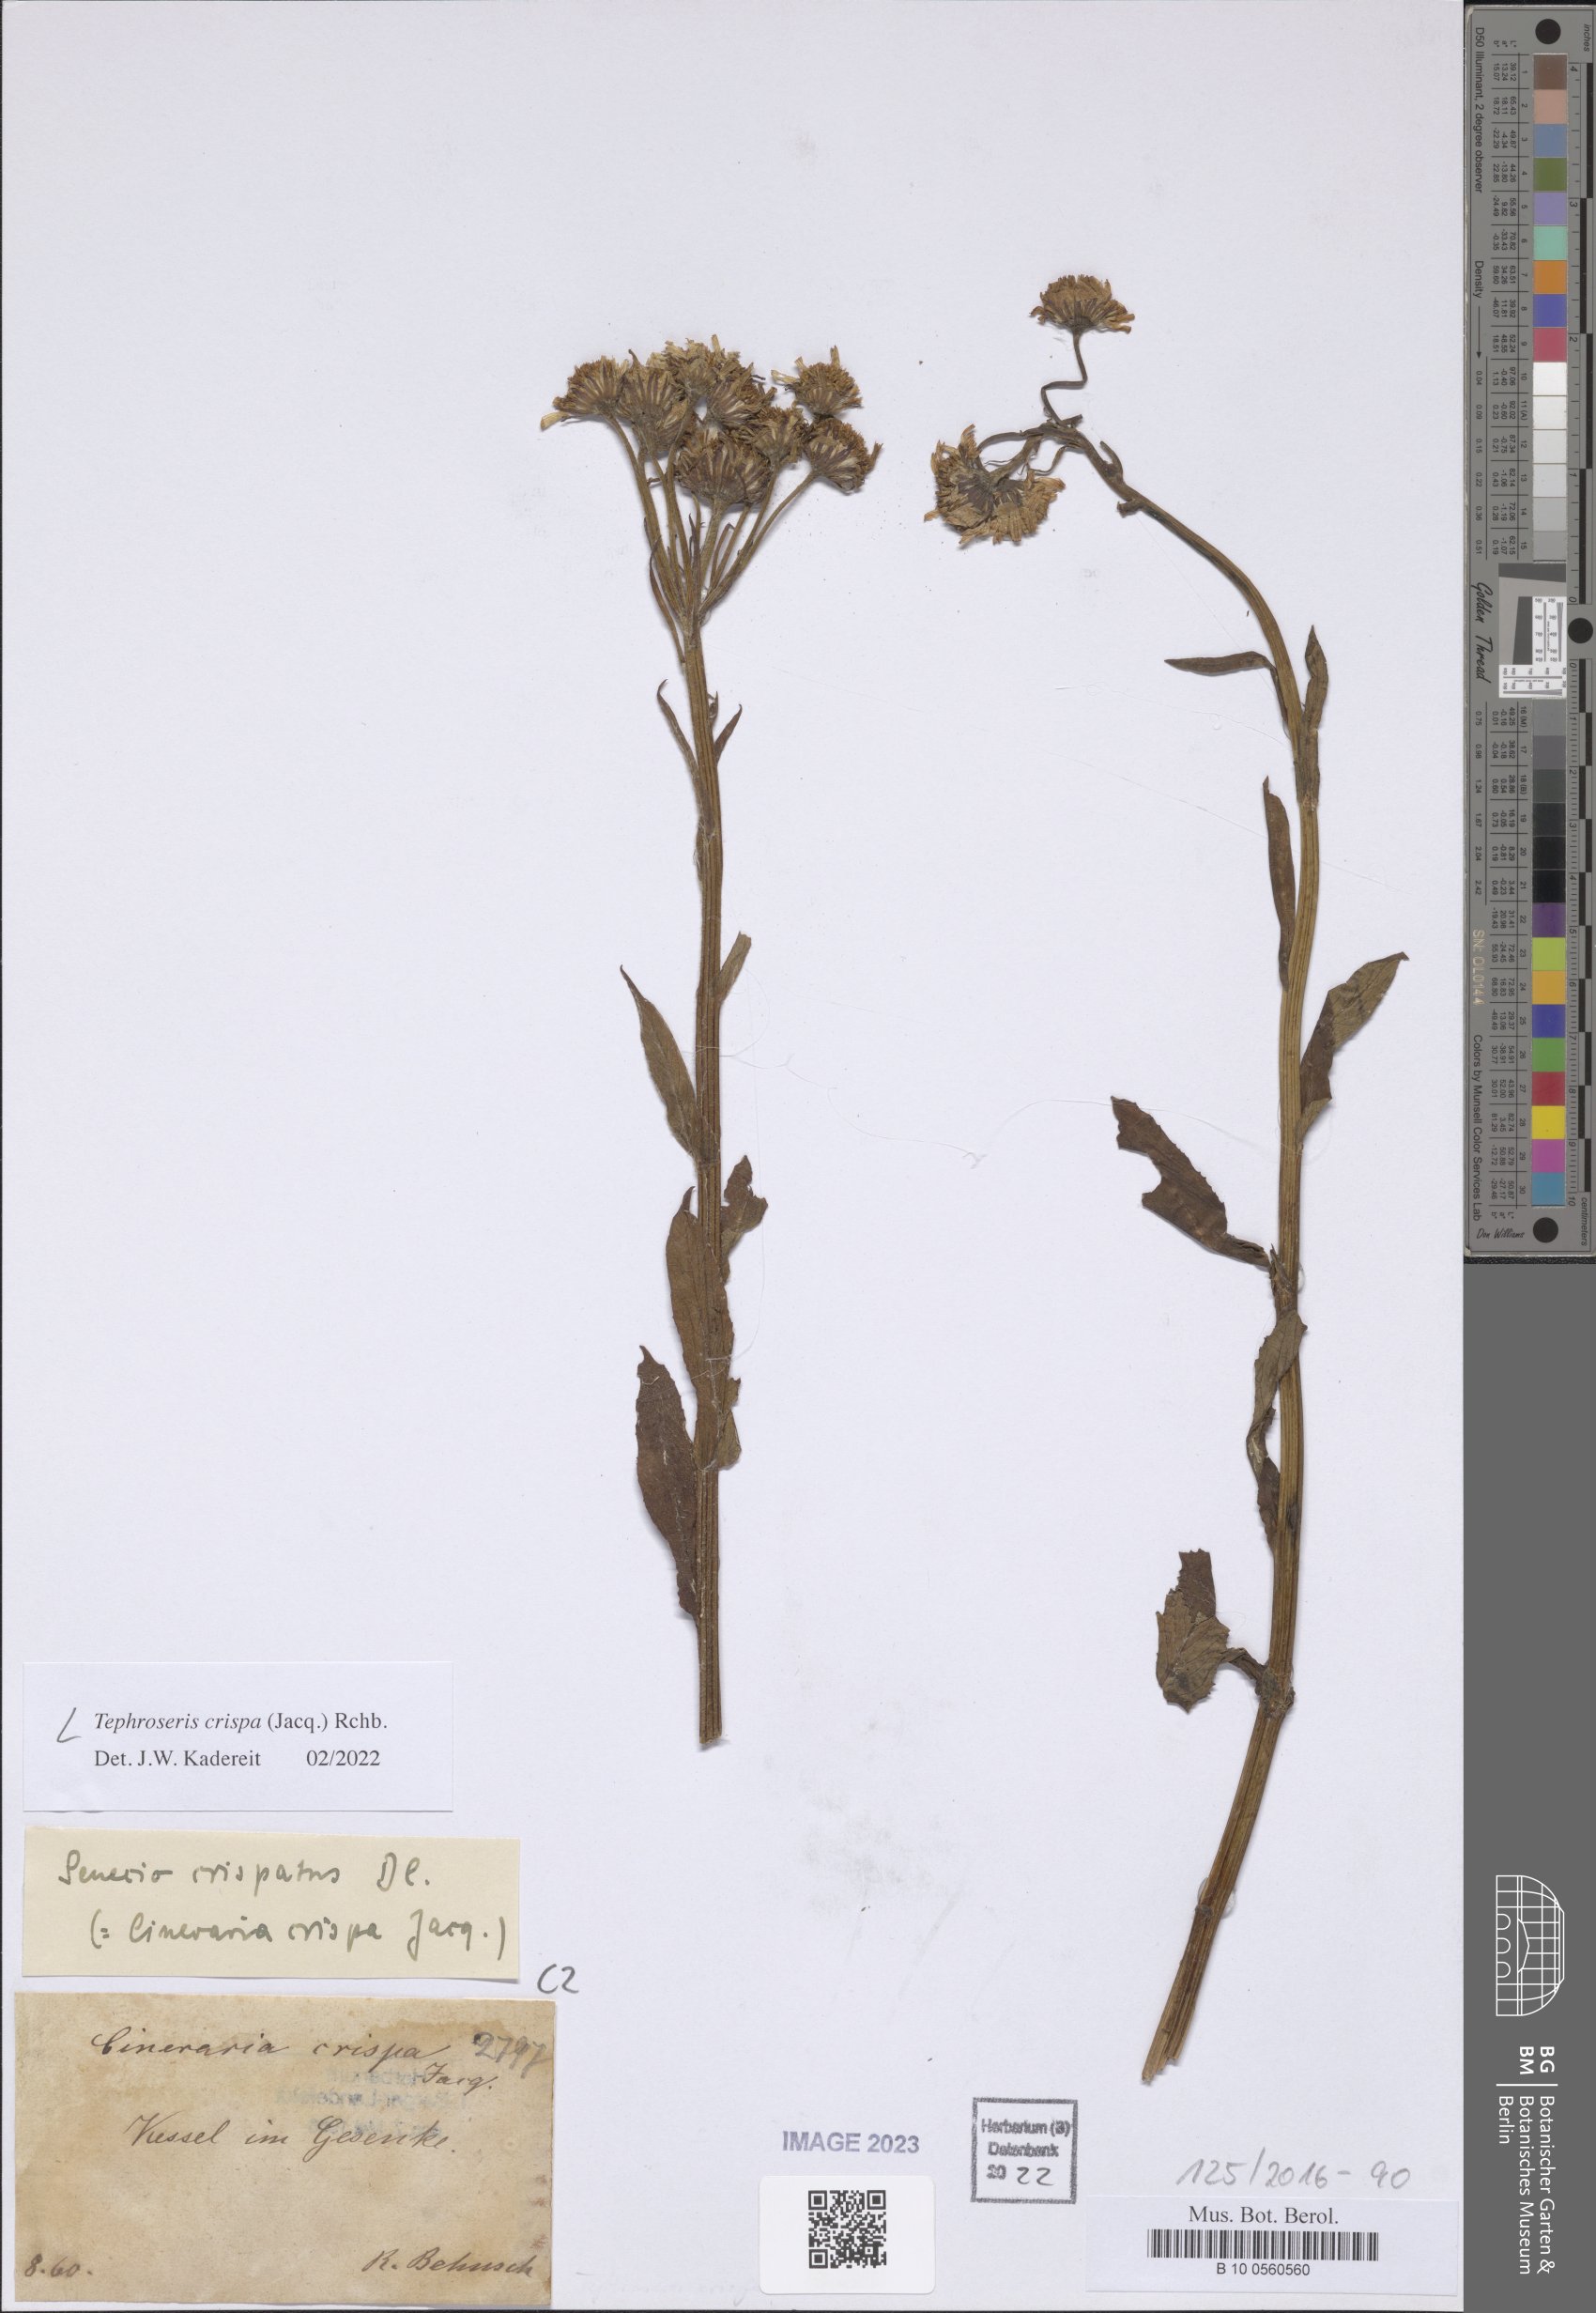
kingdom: Plantae
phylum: Tracheophyta
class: Magnoliopsida
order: Asterales
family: Asteraceae
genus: Tephroseris
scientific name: Tephroseris crispa
